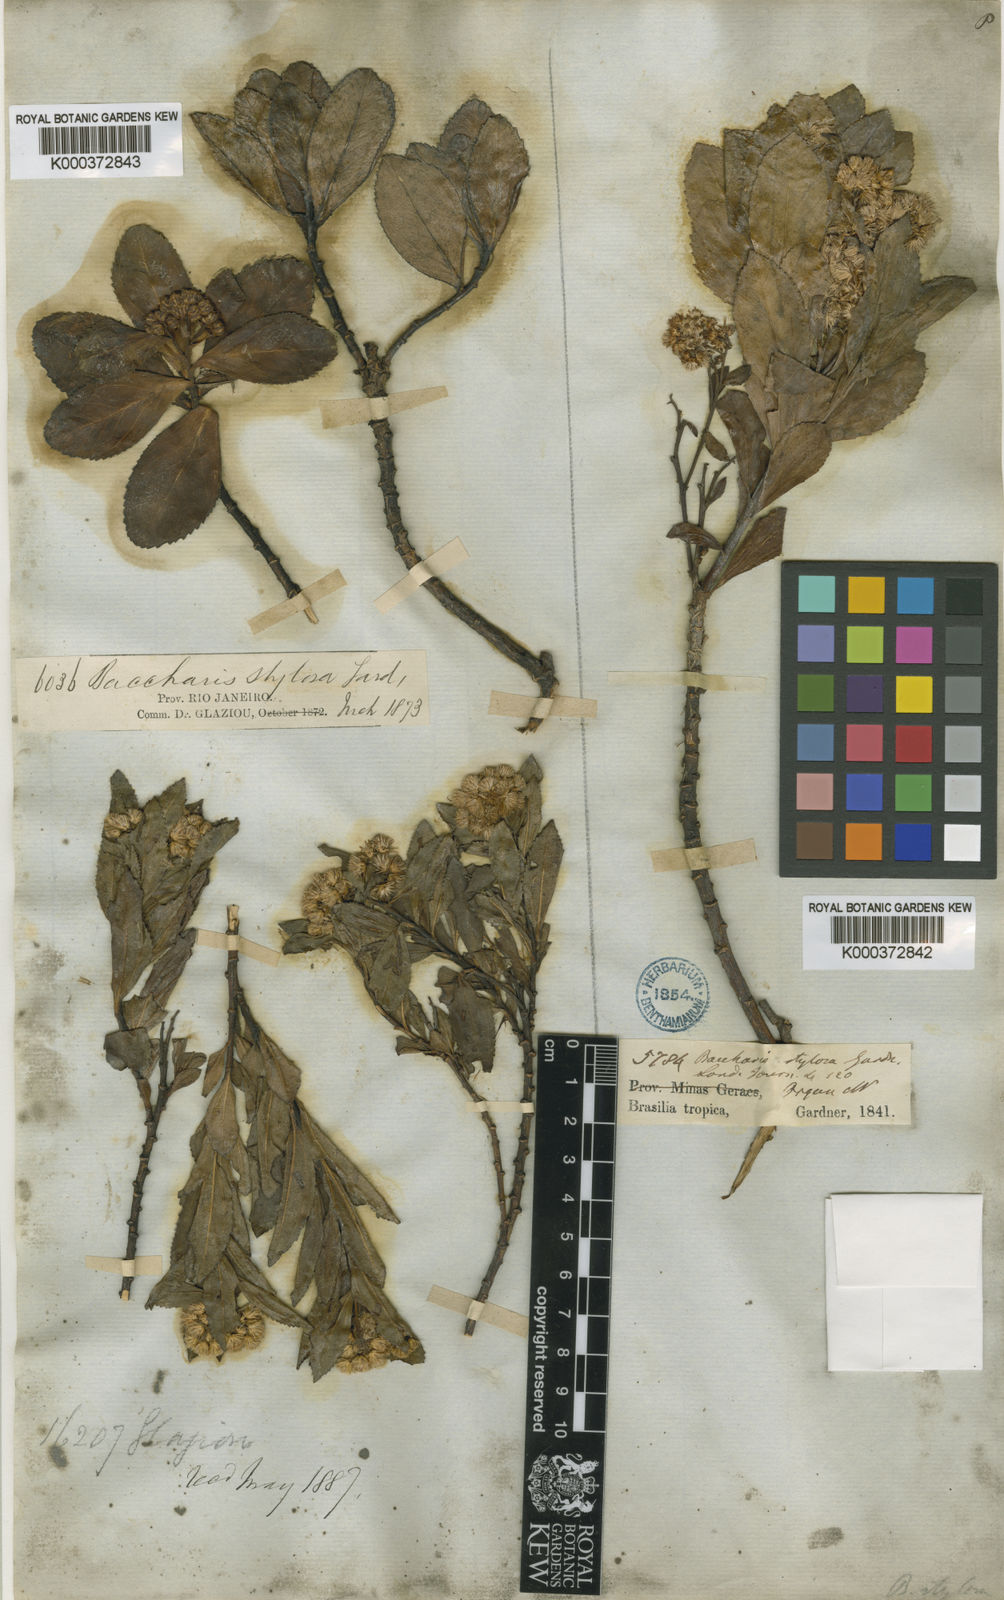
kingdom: Plantae
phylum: Tracheophyta
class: Magnoliopsida
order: Asterales
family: Asteraceae
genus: Baccharis
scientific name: Baccharis stylosa
